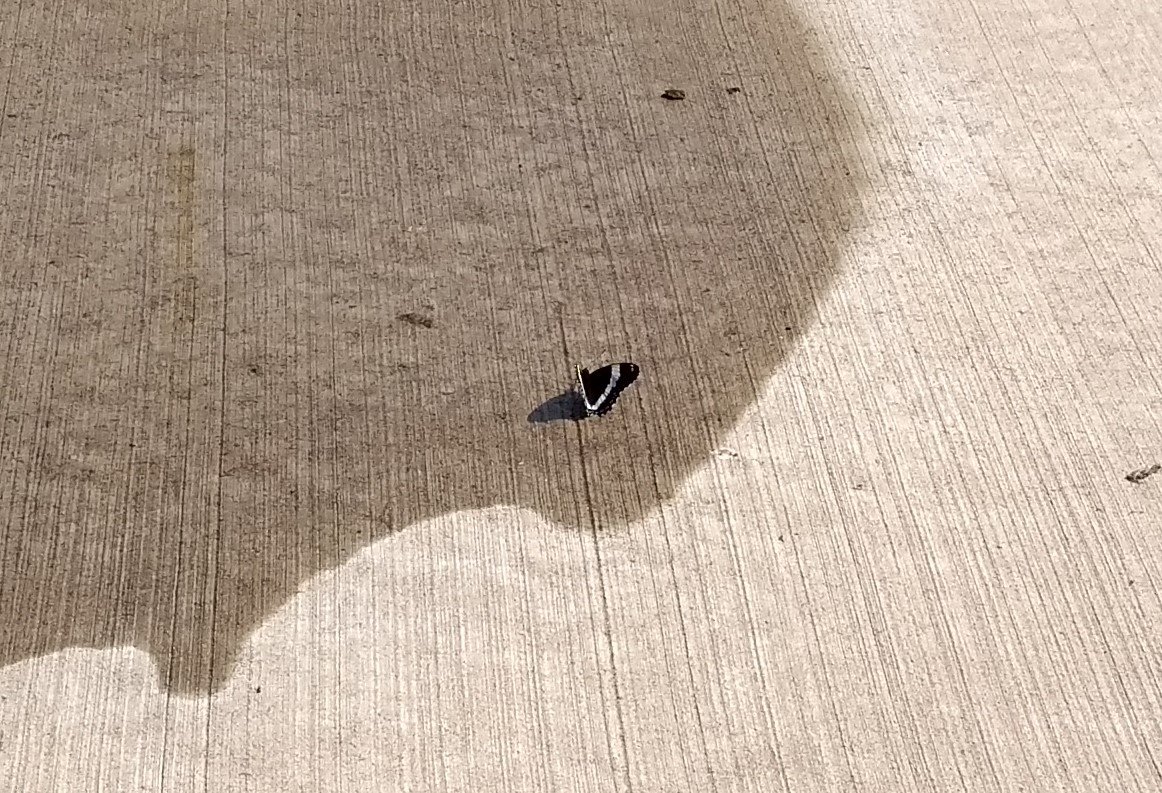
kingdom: Animalia
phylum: Arthropoda
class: Insecta
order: Lepidoptera
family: Nymphalidae
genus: Limenitis
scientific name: Limenitis arthemis
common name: Red-spotted Admiral
